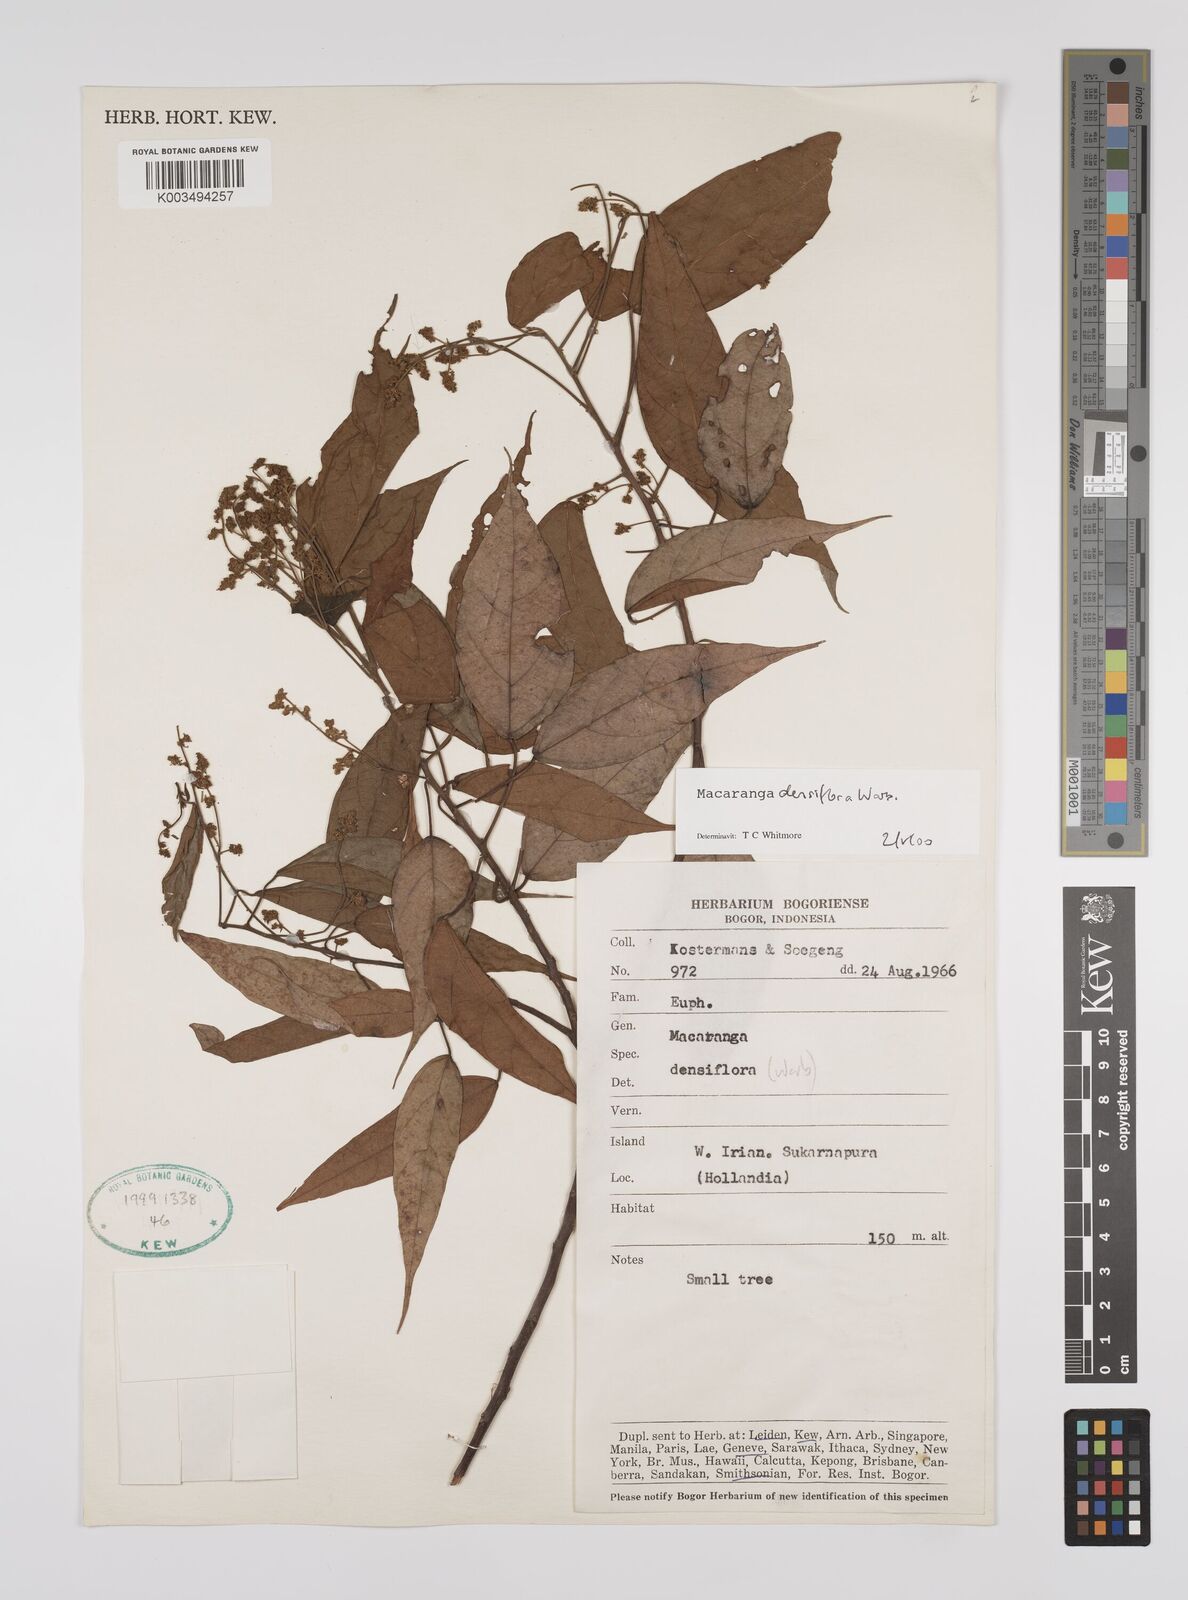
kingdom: Plantae
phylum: Tracheophyta
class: Magnoliopsida
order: Malpighiales
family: Euphorbiaceae
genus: Macaranga
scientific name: Macaranga densiflora
